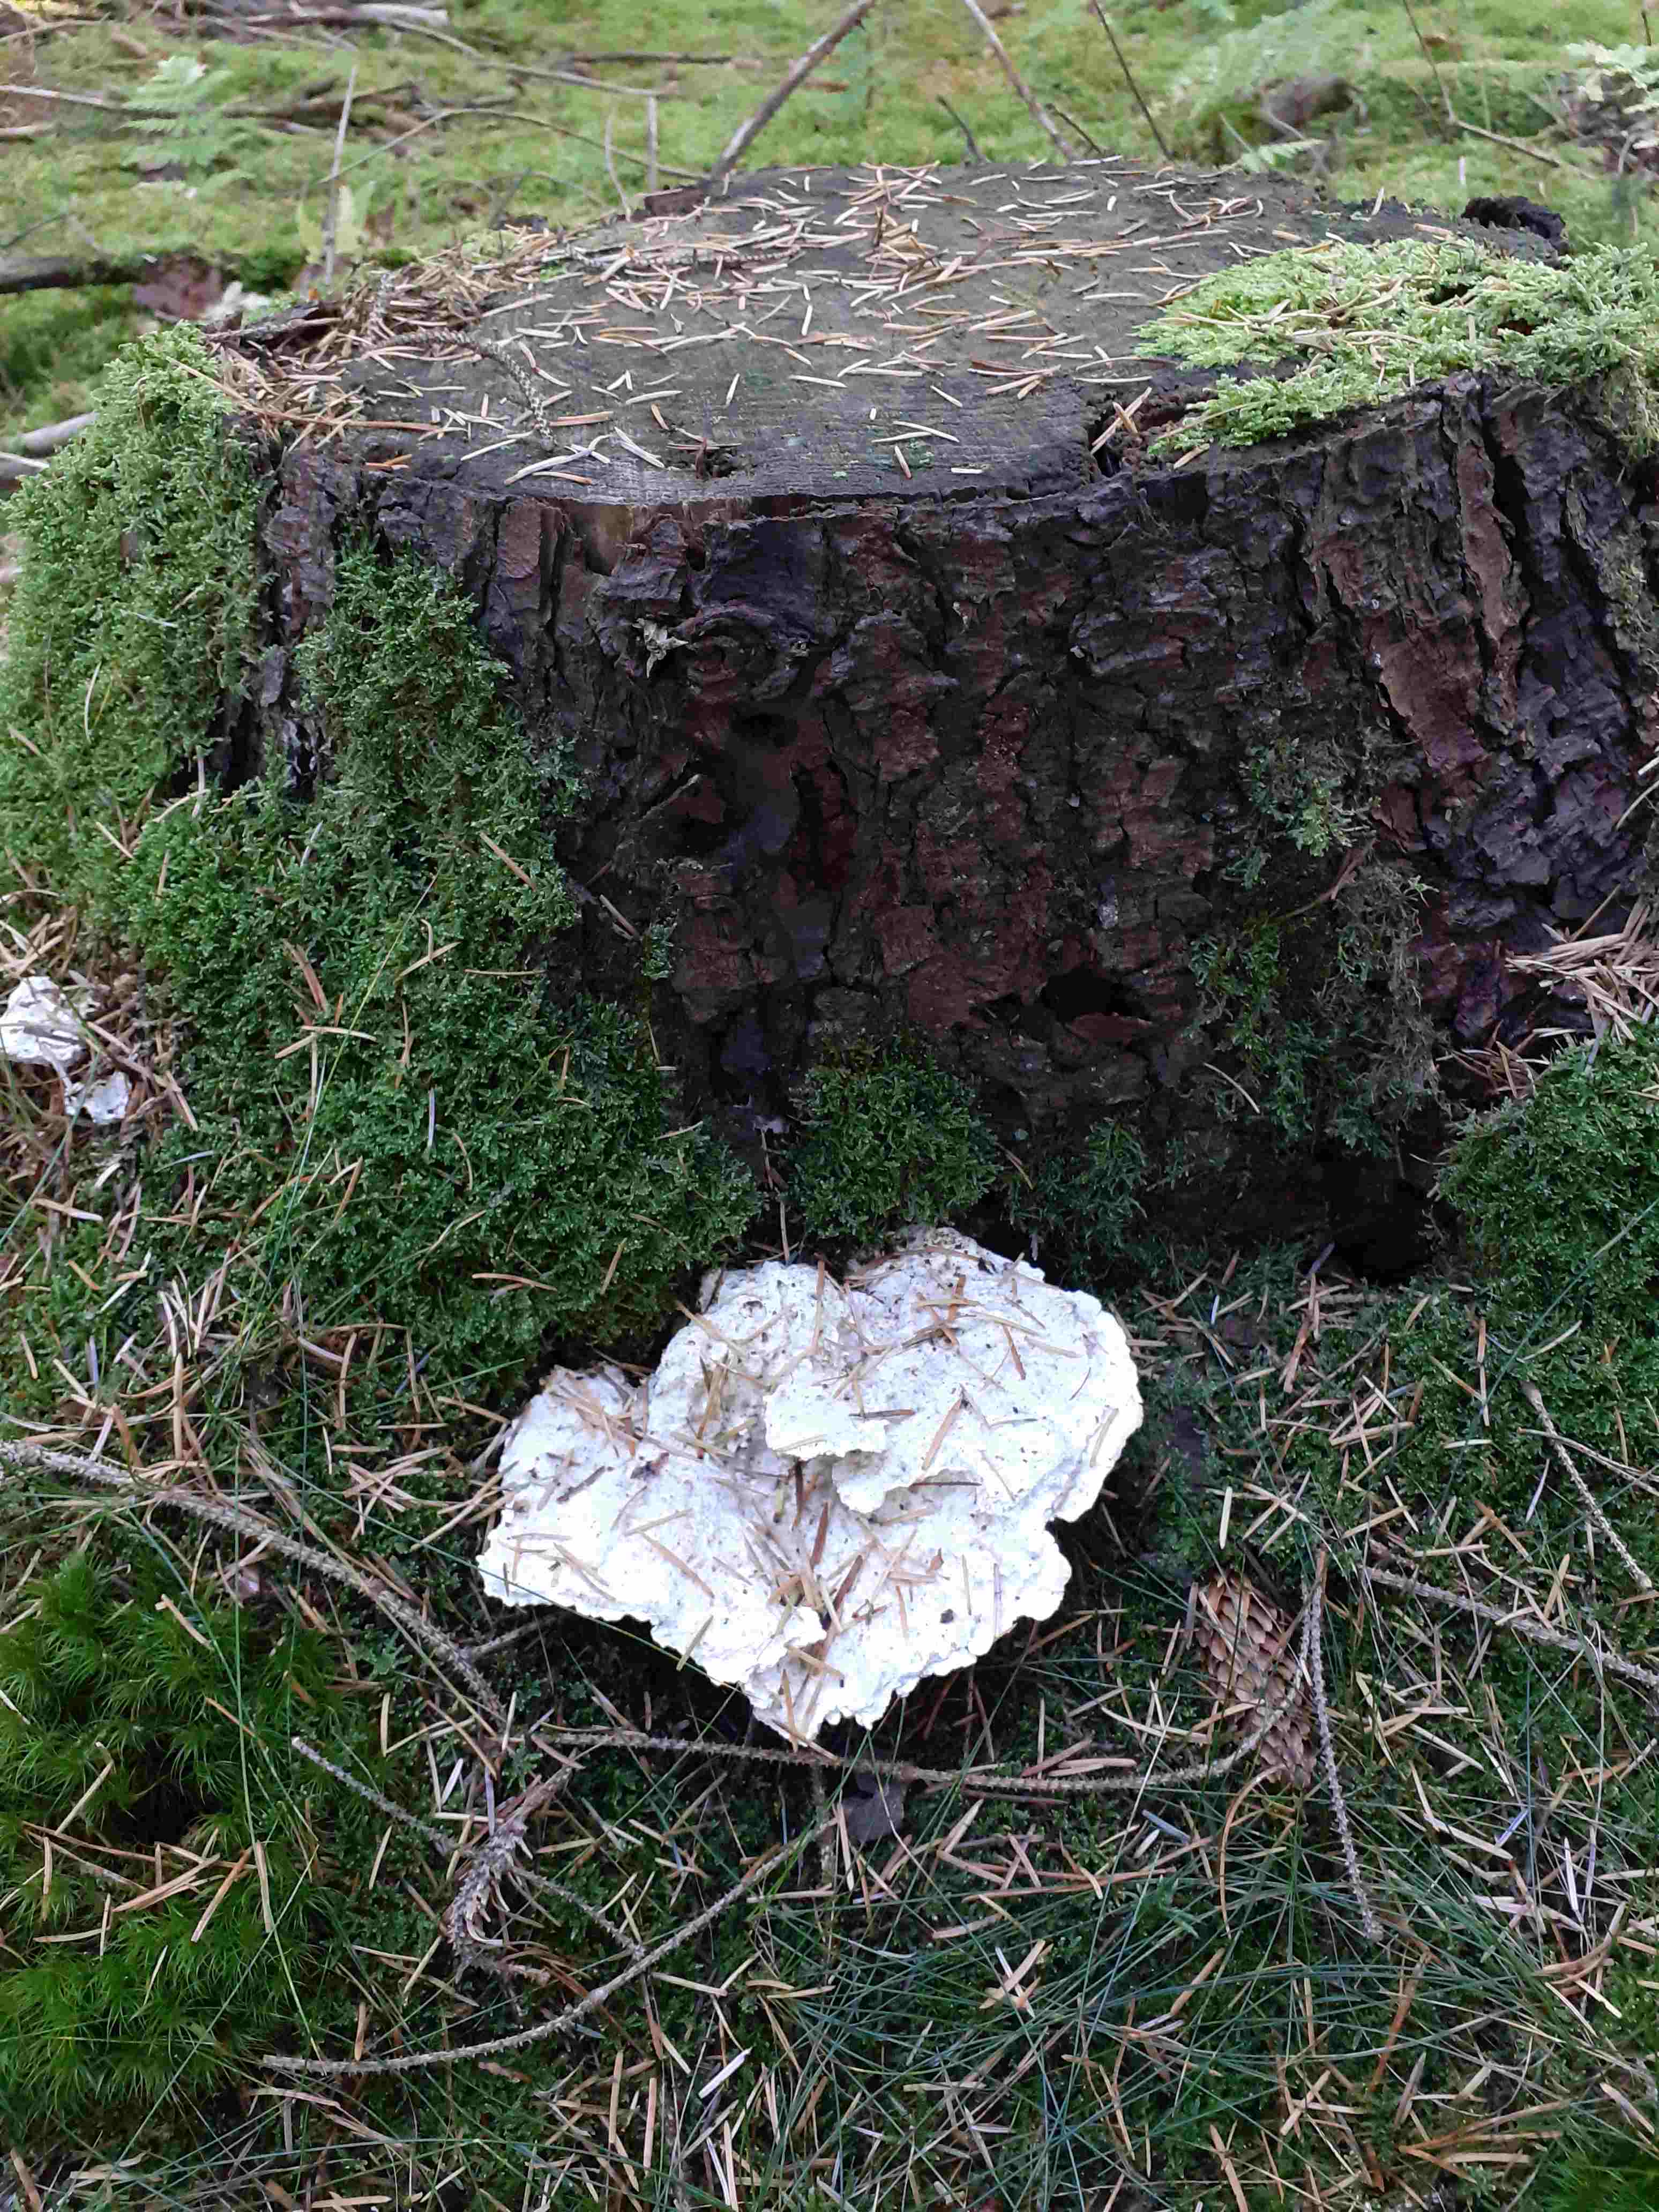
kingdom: Fungi
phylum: Basidiomycota
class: Agaricomycetes
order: Polyporales
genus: Calcipostia
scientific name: Calcipostia guttulata
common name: dråbe-kødporesvamp
